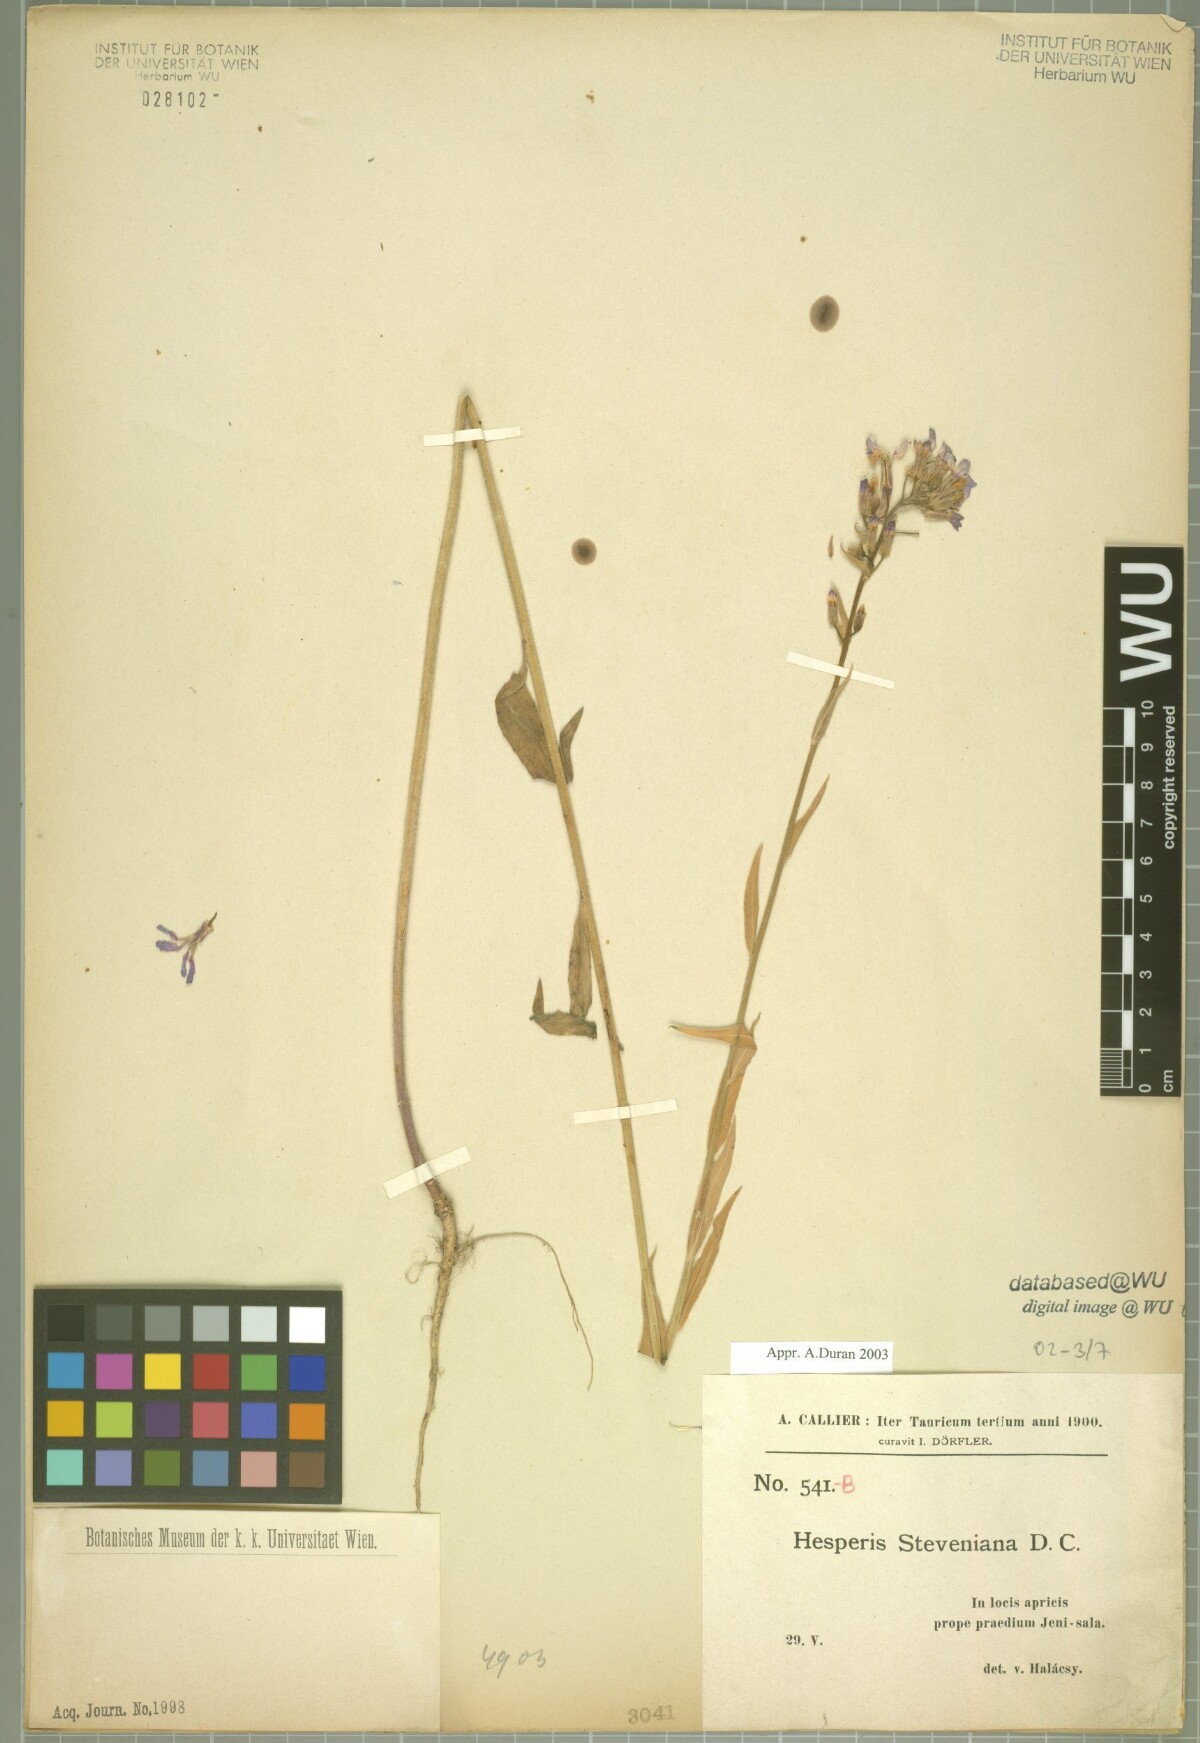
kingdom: Plantae
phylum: Tracheophyta
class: Magnoliopsida
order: Brassicales
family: Brassicaceae
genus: Hesperis
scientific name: Hesperis pycnotricha
